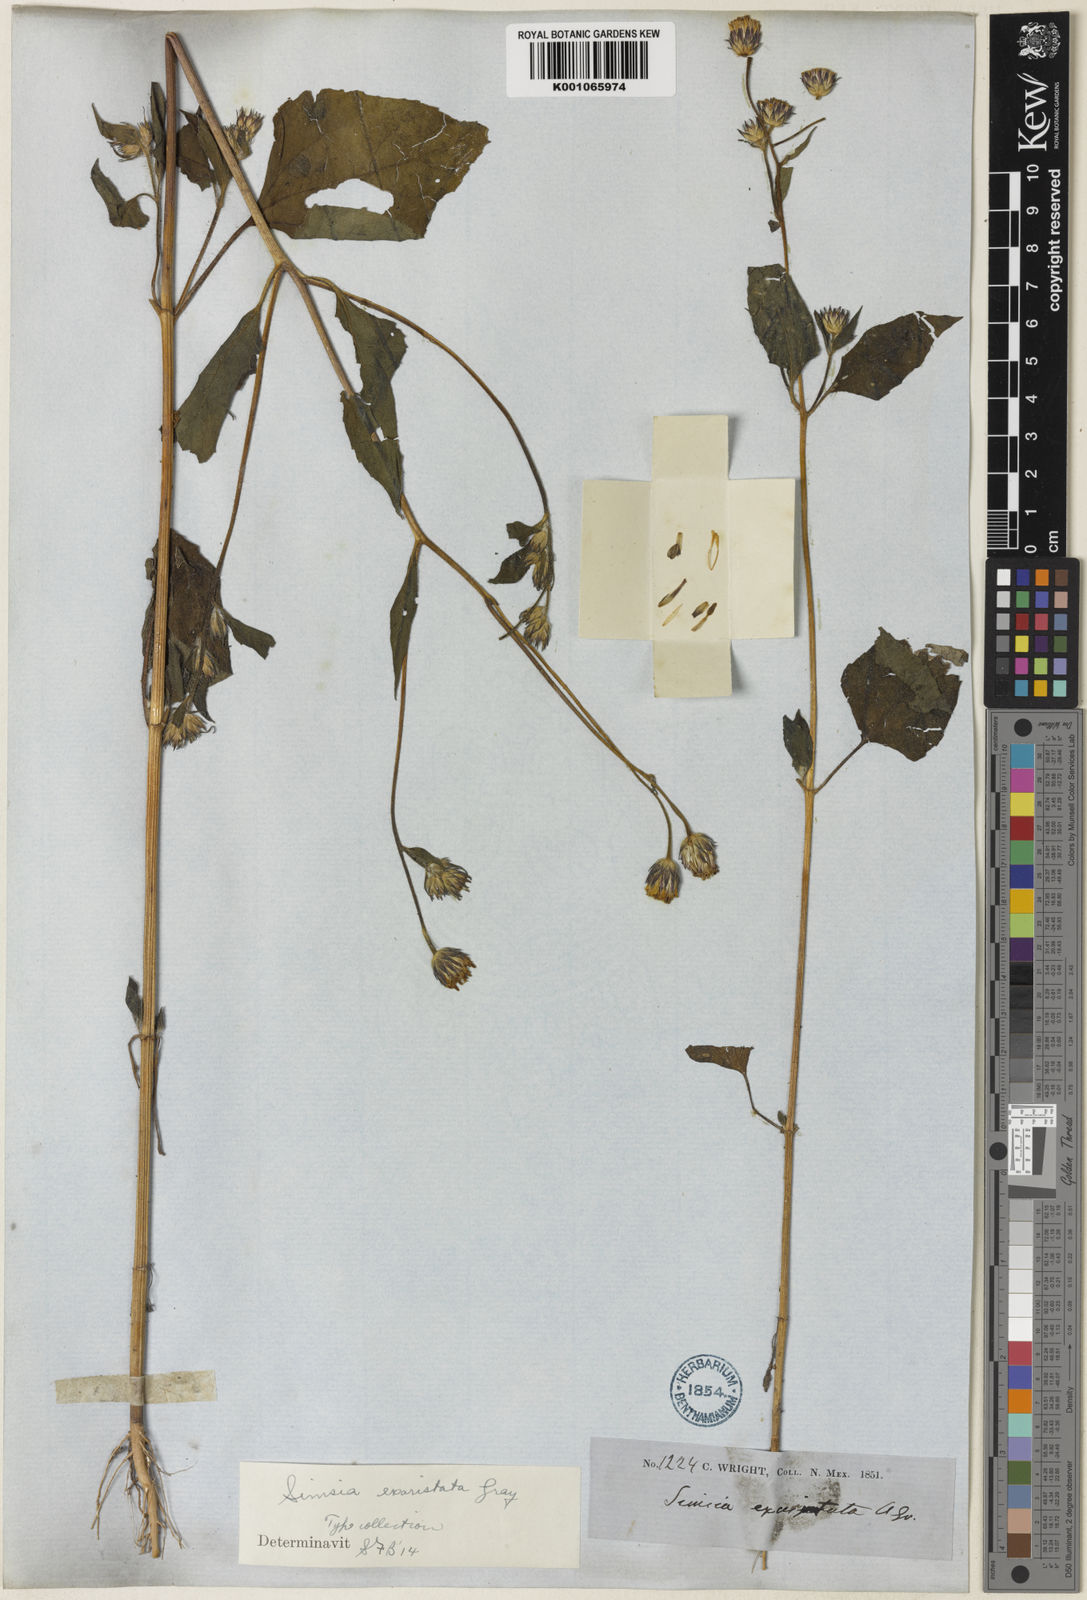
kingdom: Plantae
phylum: Tracheophyta
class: Magnoliopsida
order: Asterales
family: Asteraceae
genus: Simsia
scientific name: Simsia lagasceiformis
